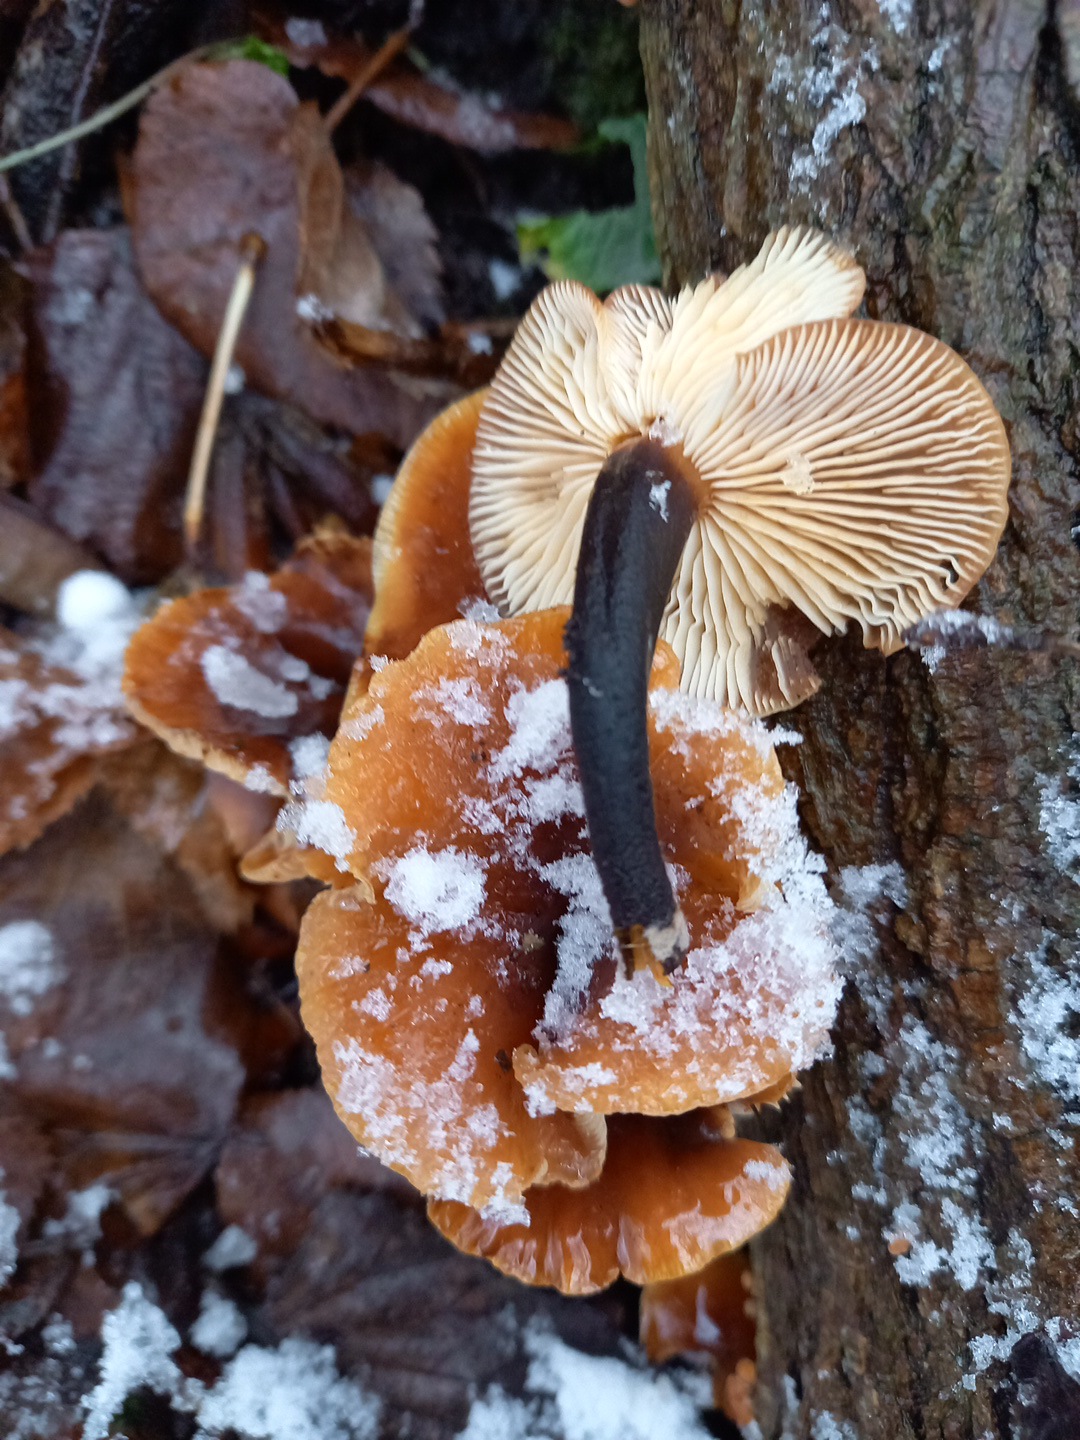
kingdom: Fungi
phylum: Basidiomycota
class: Agaricomycetes
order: Agaricales
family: Physalacriaceae
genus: Flammulina
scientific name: Flammulina velutipes
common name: gul fløjlsfod
